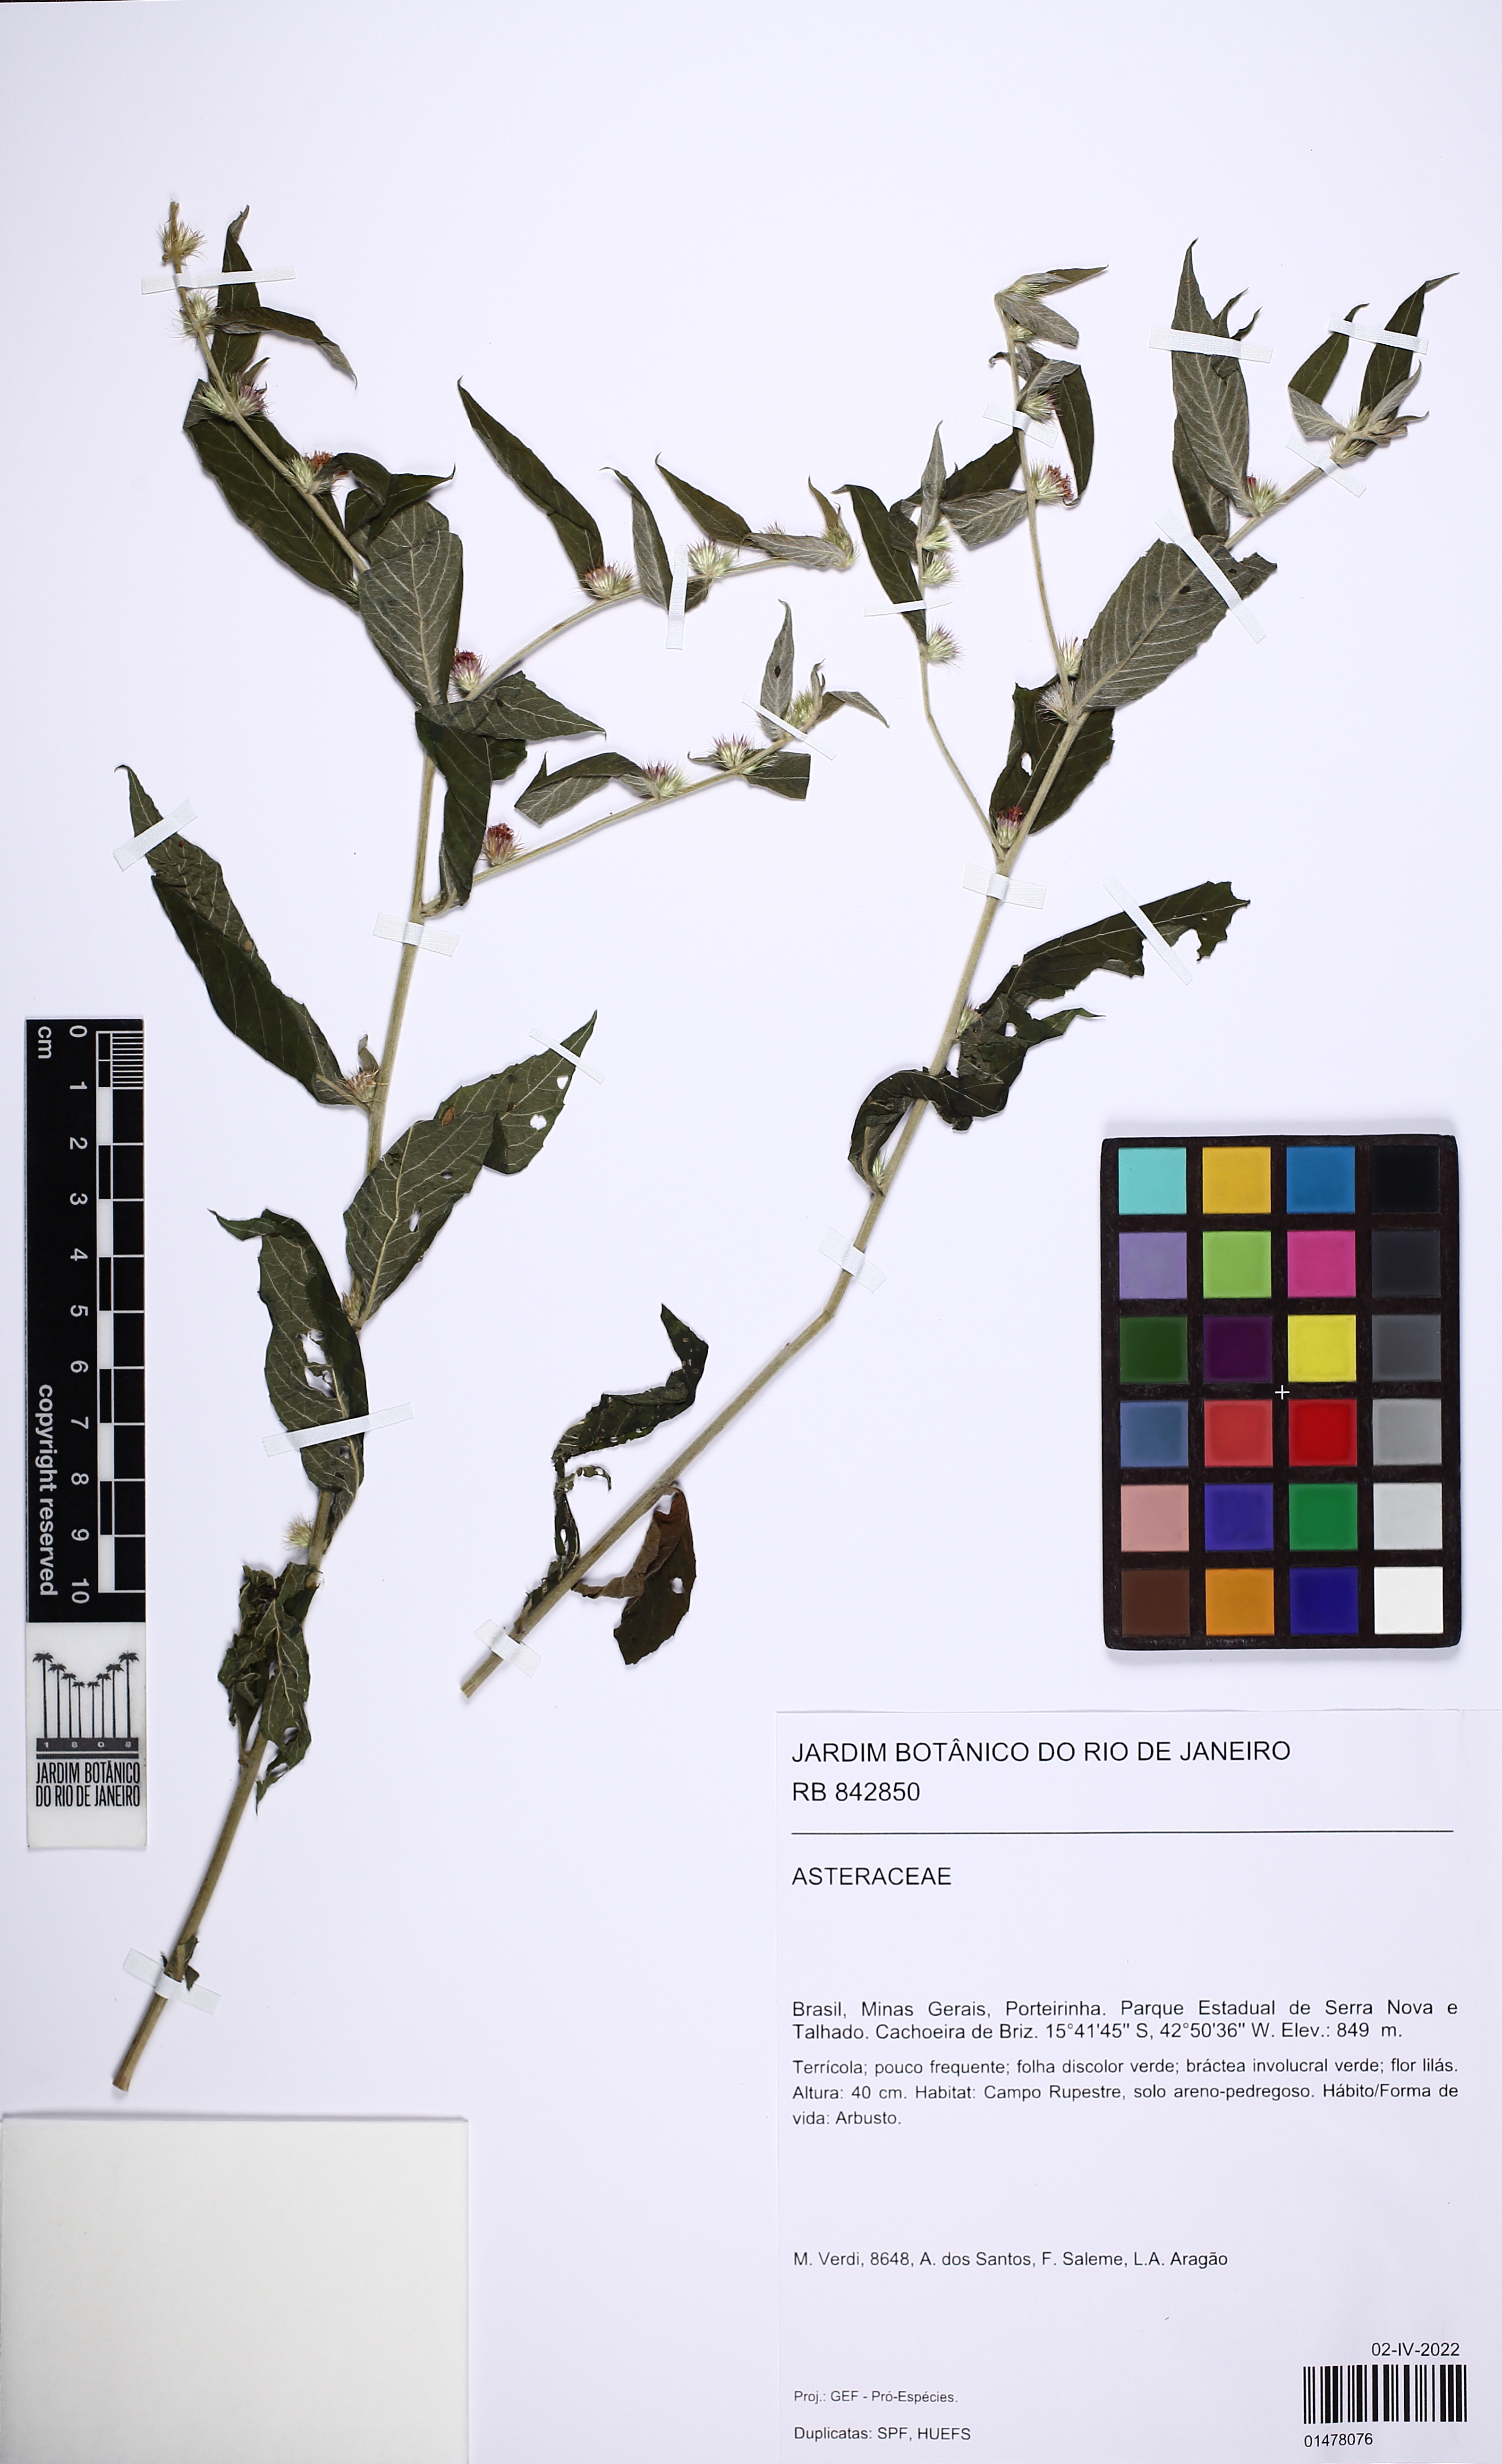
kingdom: Plantae
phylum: Tracheophyta
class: Magnoliopsida
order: Asterales
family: Asteraceae
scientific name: Asteraceae
